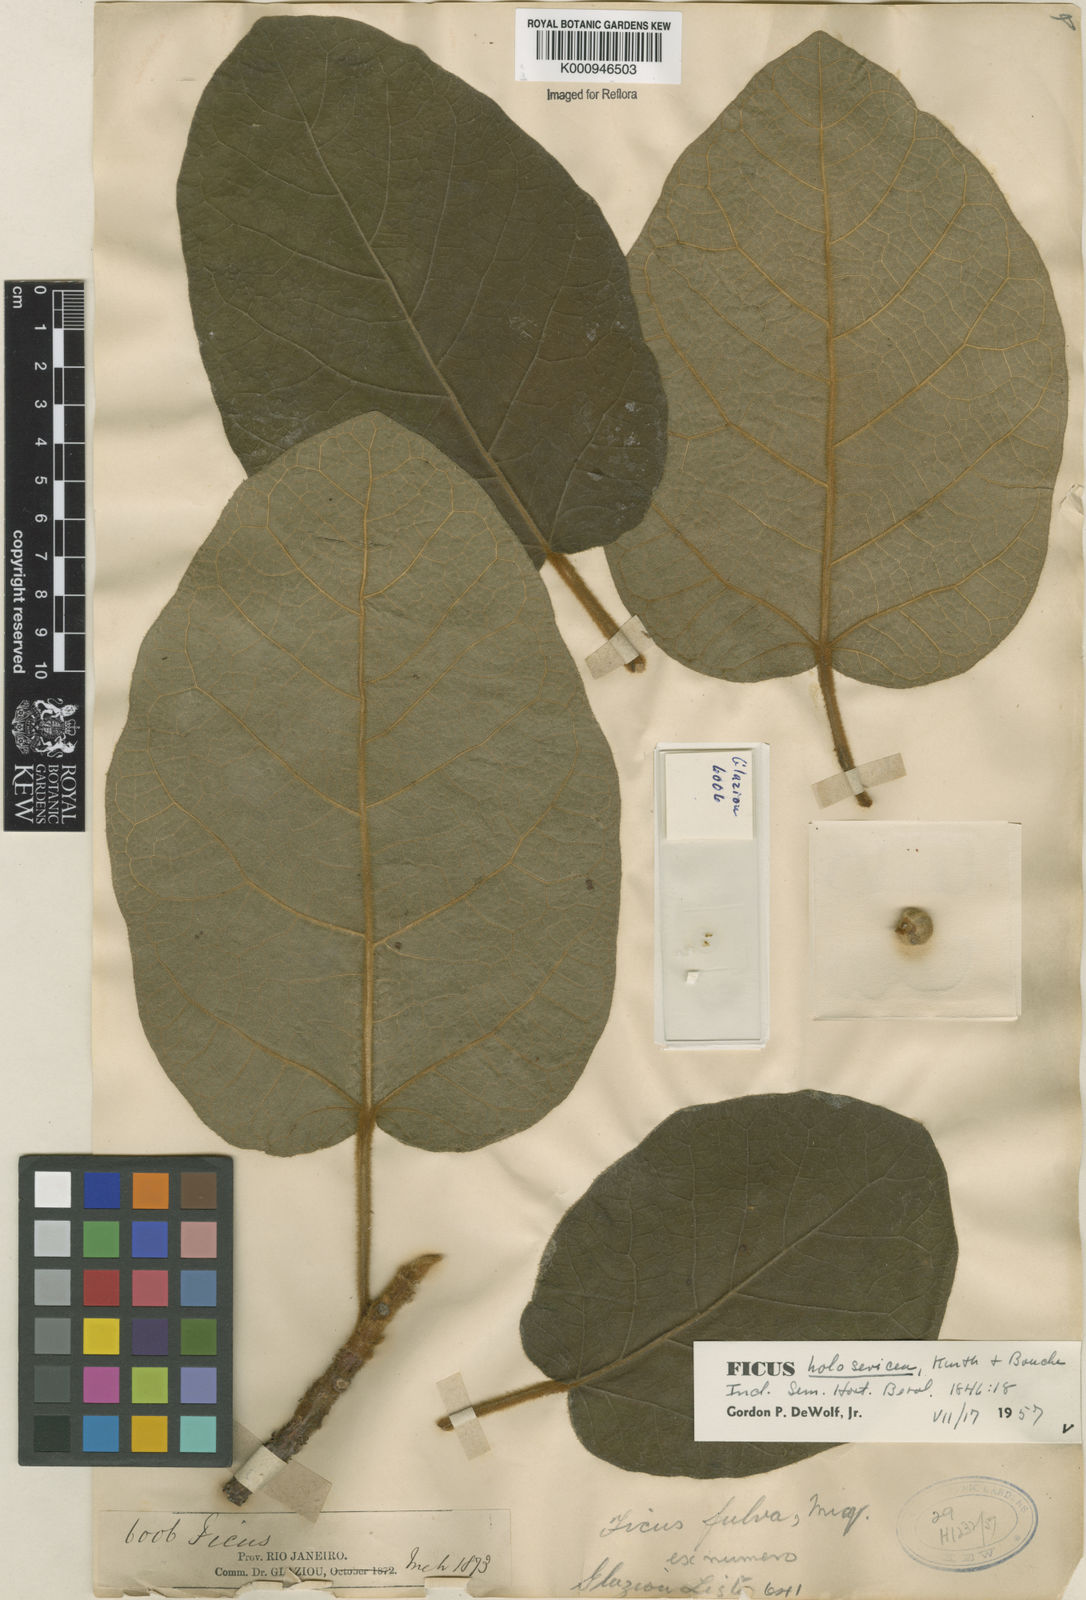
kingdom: Plantae
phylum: Tracheophyta
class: Magnoliopsida
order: Rosales
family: Moraceae
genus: Ficus
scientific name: Ficus holosericea
